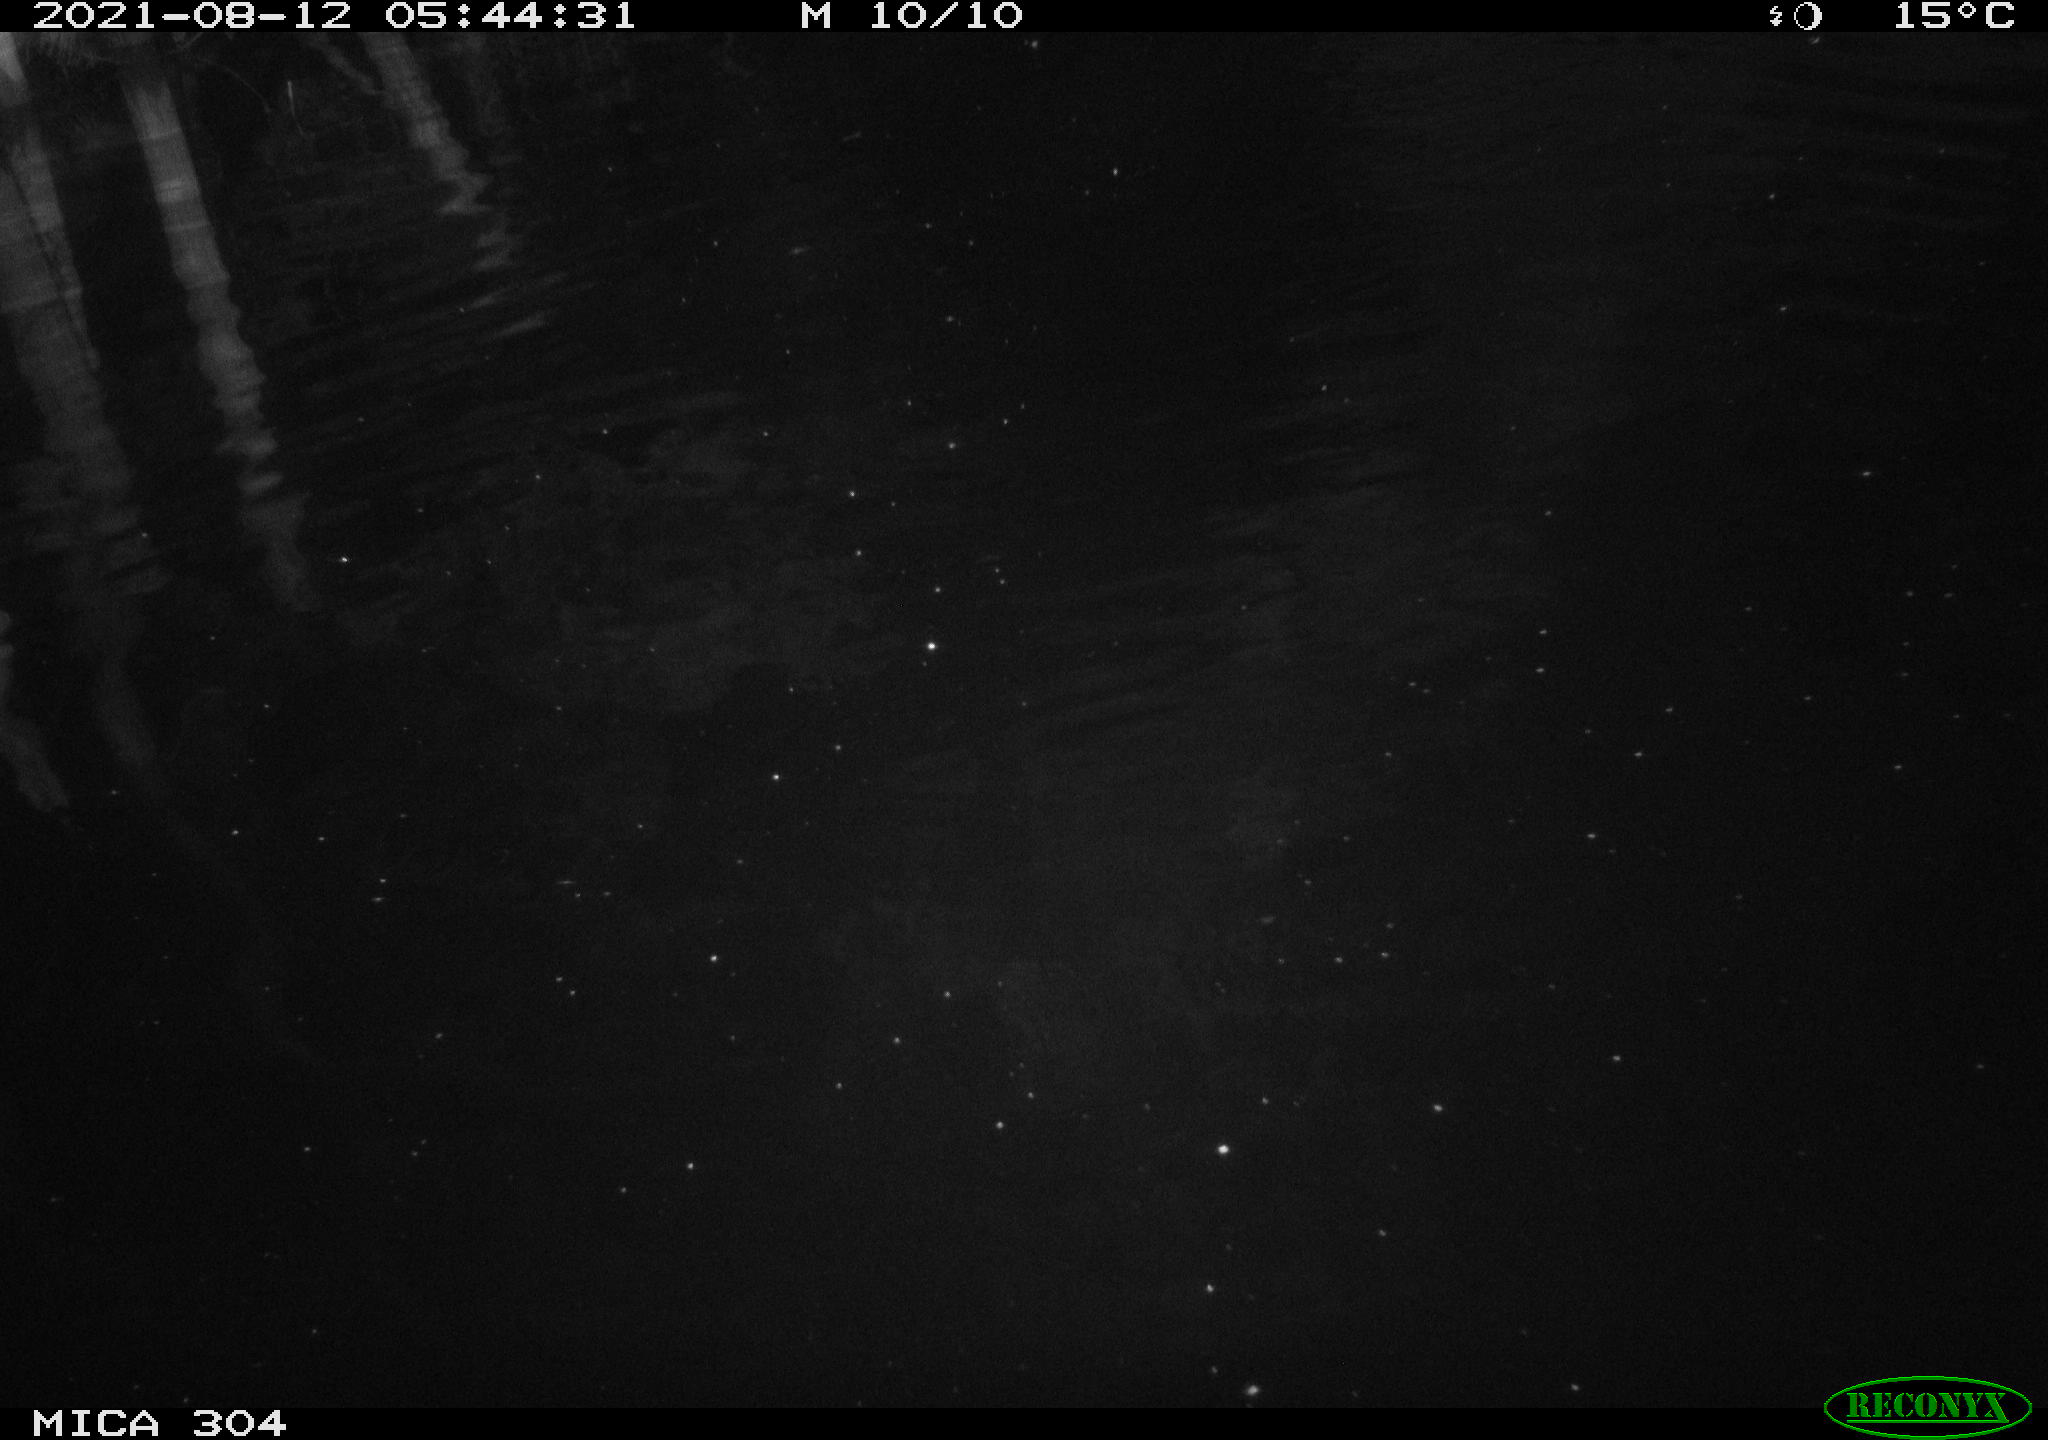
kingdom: Animalia
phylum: Chordata
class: Aves
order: Pelecaniformes
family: Ardeidae
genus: Ardea
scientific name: Ardea
